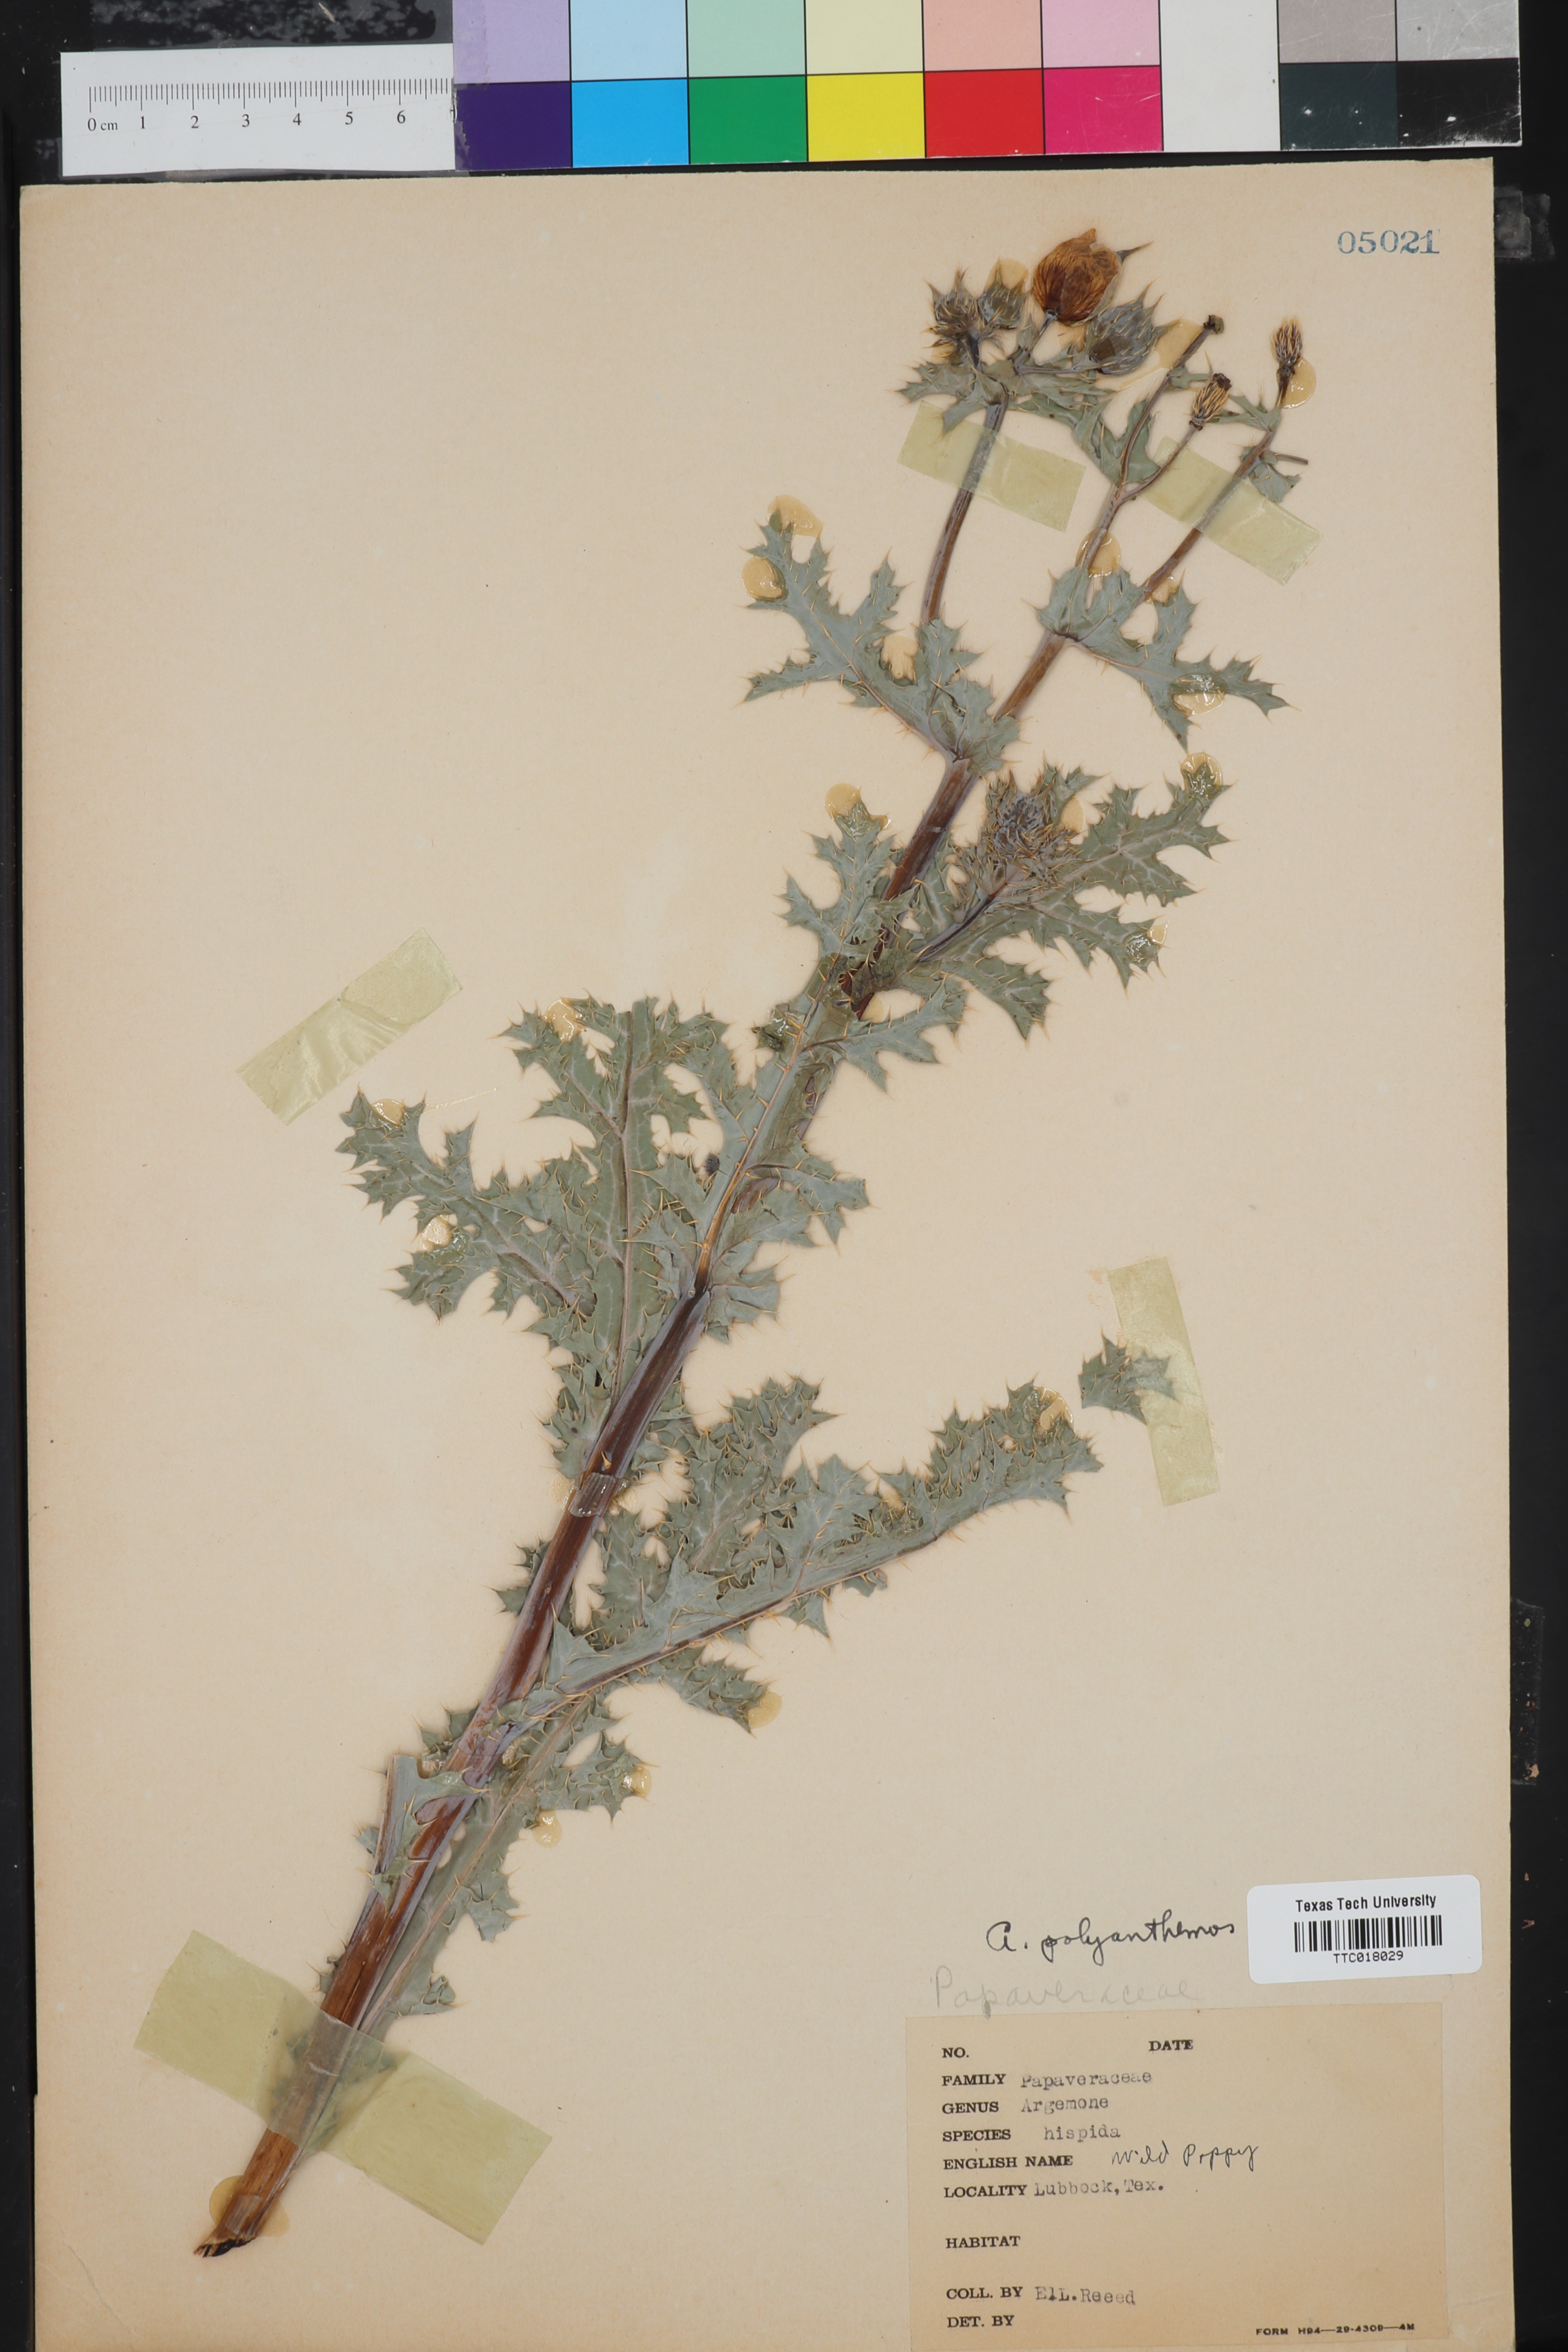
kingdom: Plantae
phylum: Tracheophyta
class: Magnoliopsida
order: Ranunculales
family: Papaveraceae
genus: Argemone
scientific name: Argemone polyanthemos
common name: Plains prickly-poppy
